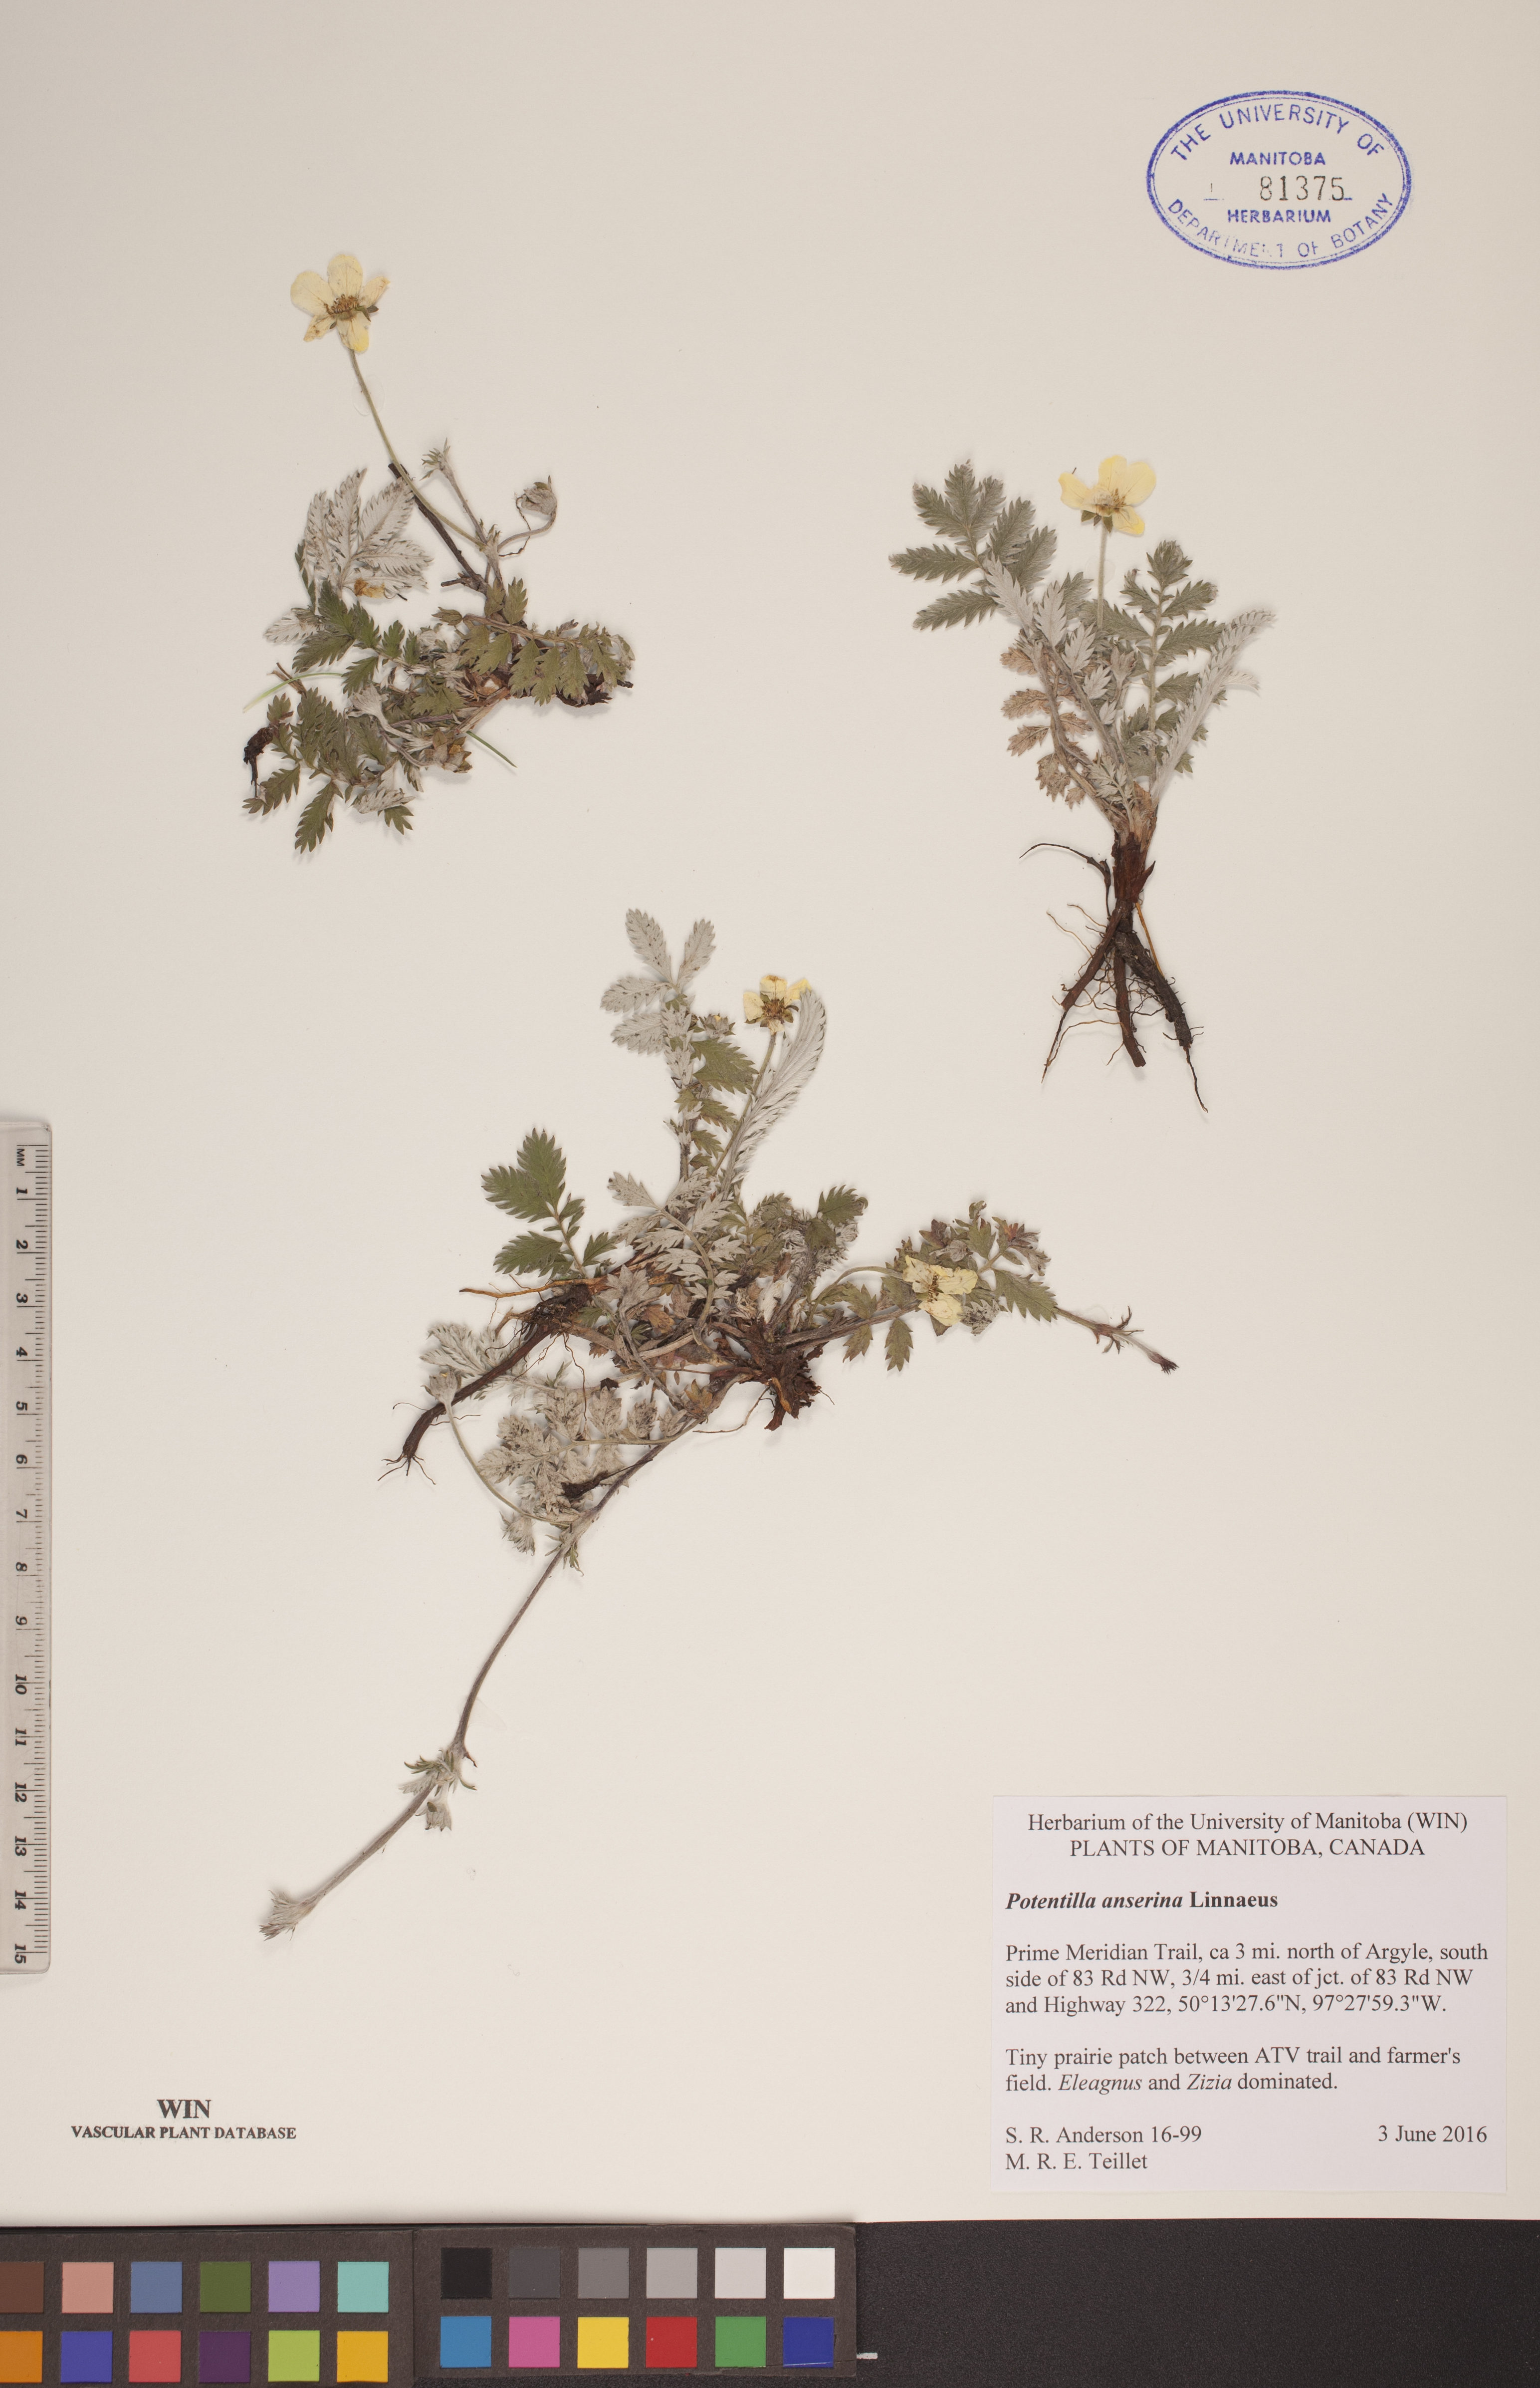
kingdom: Plantae
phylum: Tracheophyta
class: Magnoliopsida
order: Rosales
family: Rosaceae
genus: Argentina
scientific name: Argentina anserina
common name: Common silverweed
